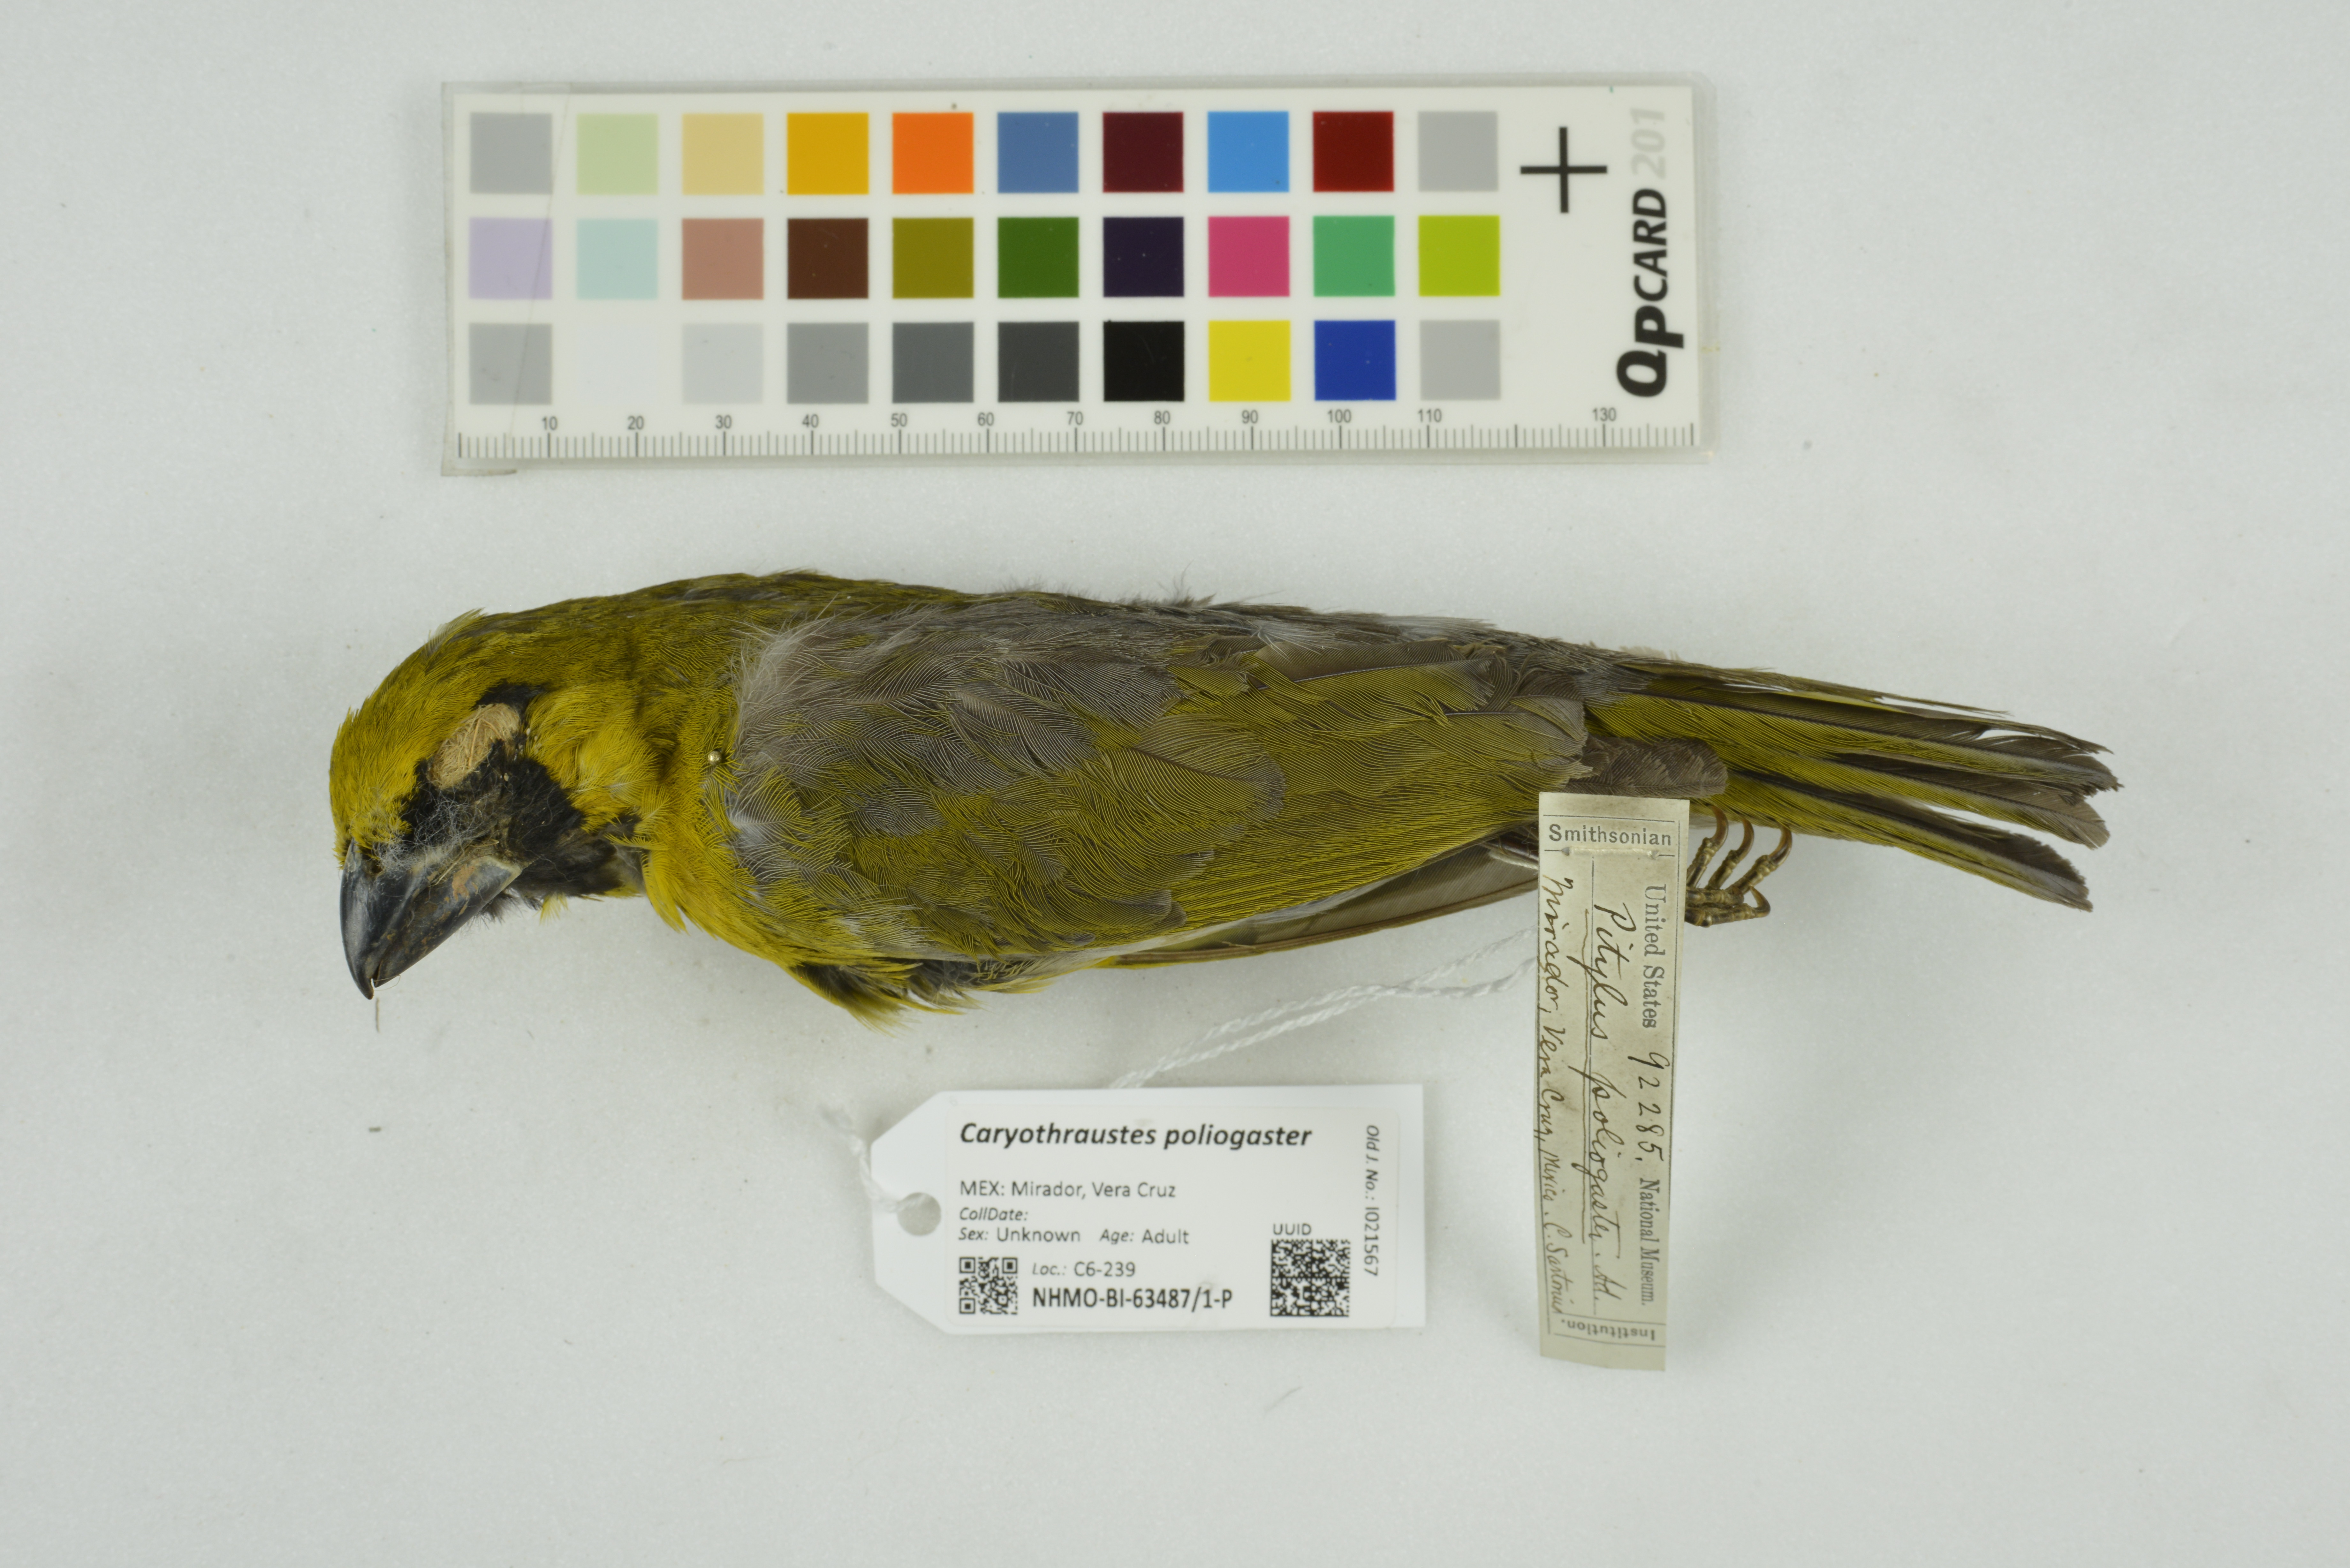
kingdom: Animalia
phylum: Chordata
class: Aves
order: Passeriformes
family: Cardinalidae
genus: Caryothraustes
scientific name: Caryothraustes poliogaster
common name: Black-faced grosbeak
